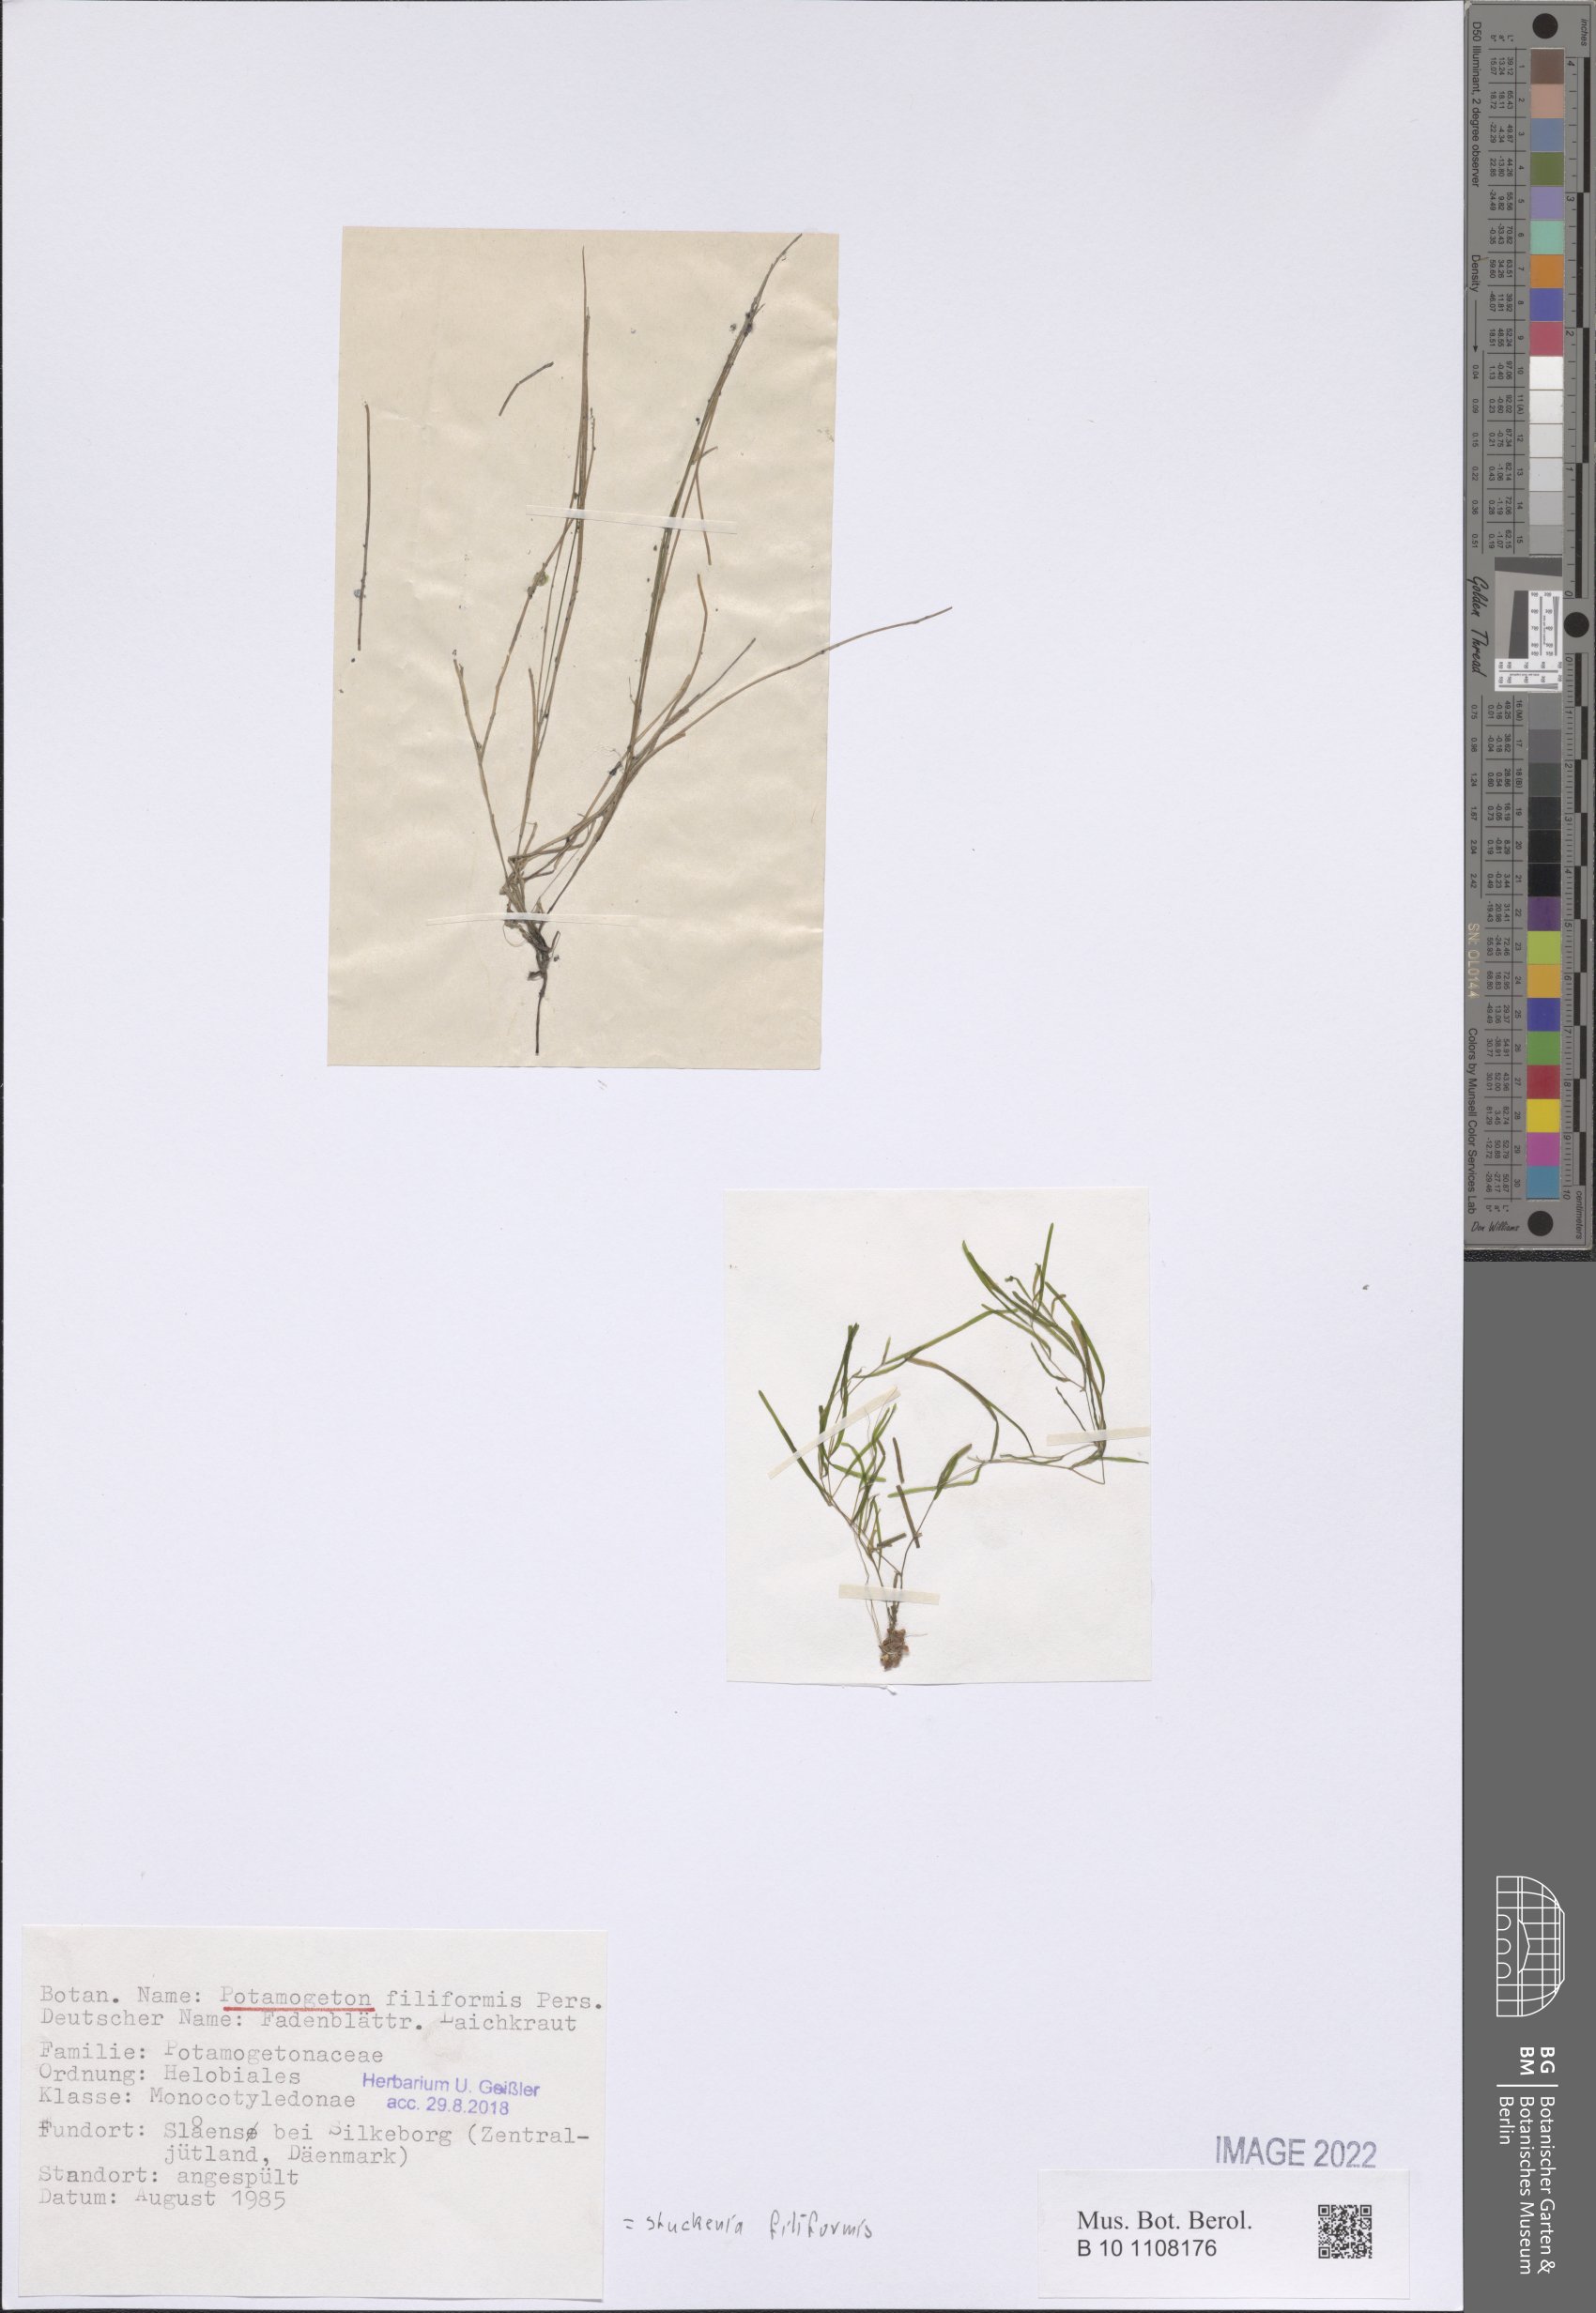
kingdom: Plantae
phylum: Tracheophyta
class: Liliopsida
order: Alismatales
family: Potamogetonaceae
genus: Stuckenia
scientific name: Stuckenia filiformis
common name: Alpine thread-leaved pondweed
